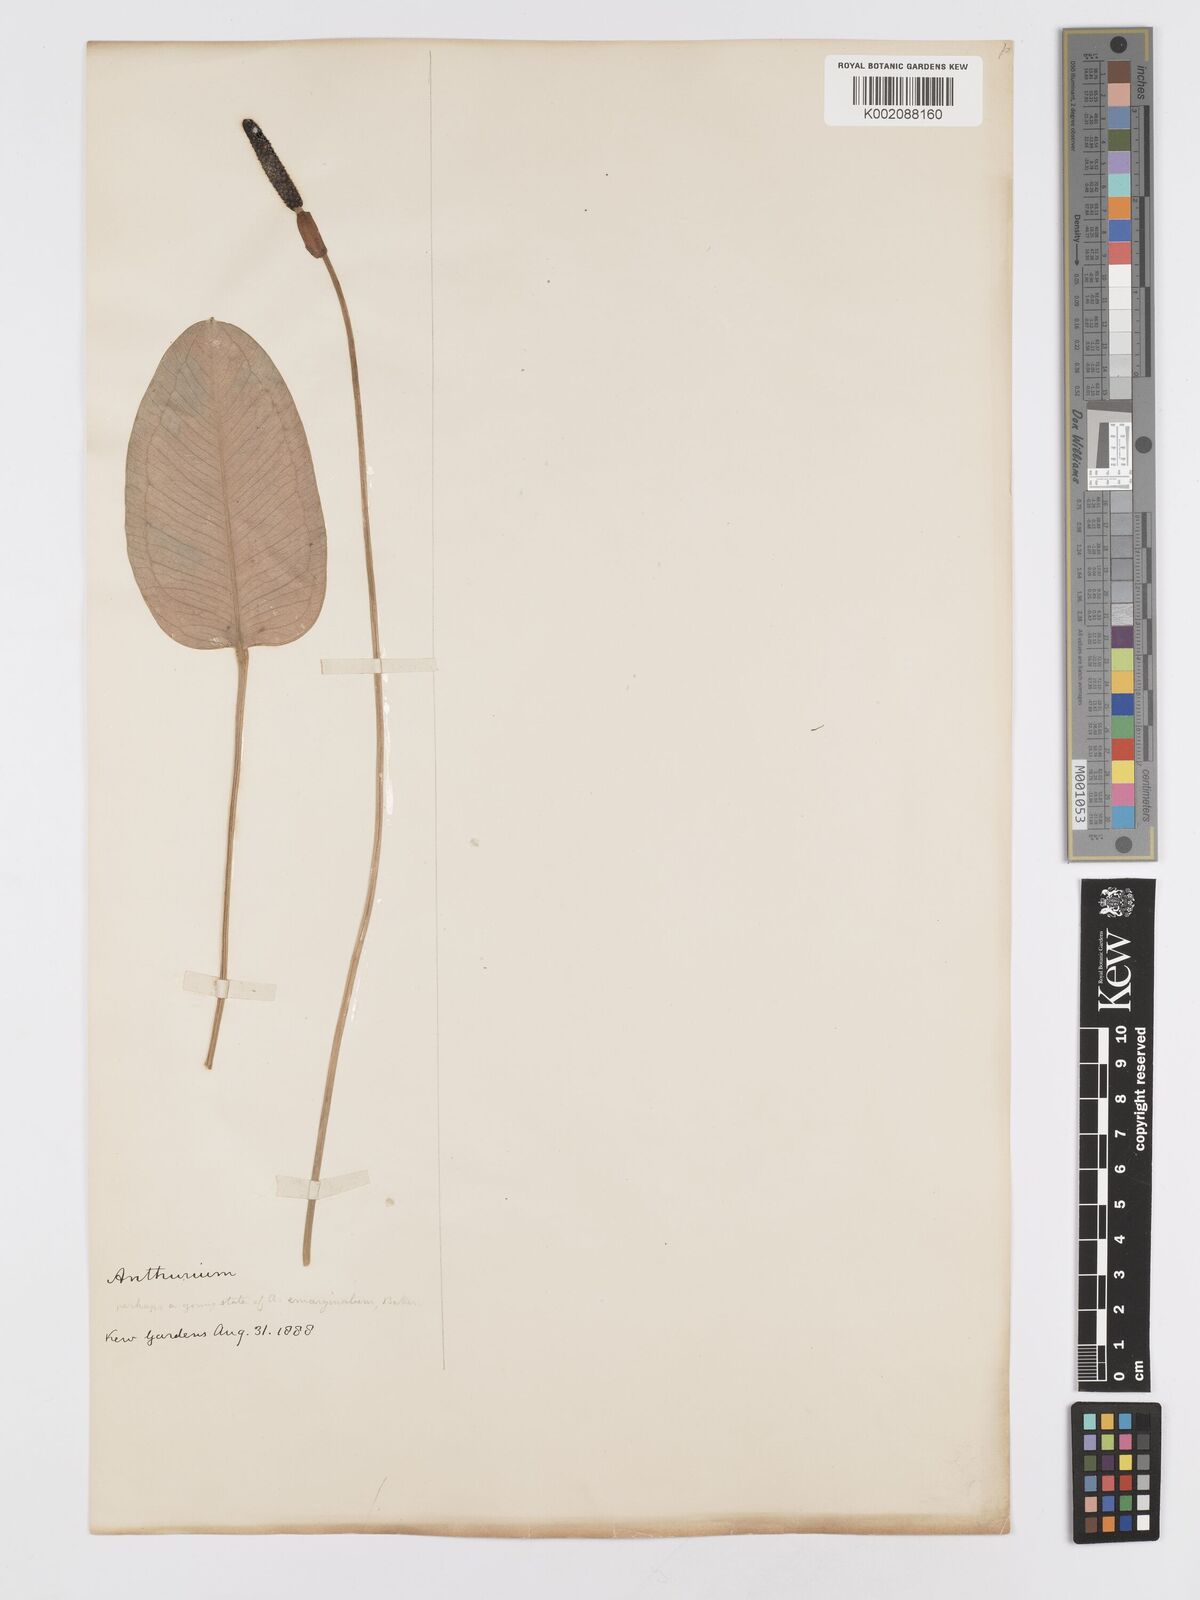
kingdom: Plantae
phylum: Tracheophyta
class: Liliopsida
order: Alismatales
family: Araceae
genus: Anthurium
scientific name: Anthurium
